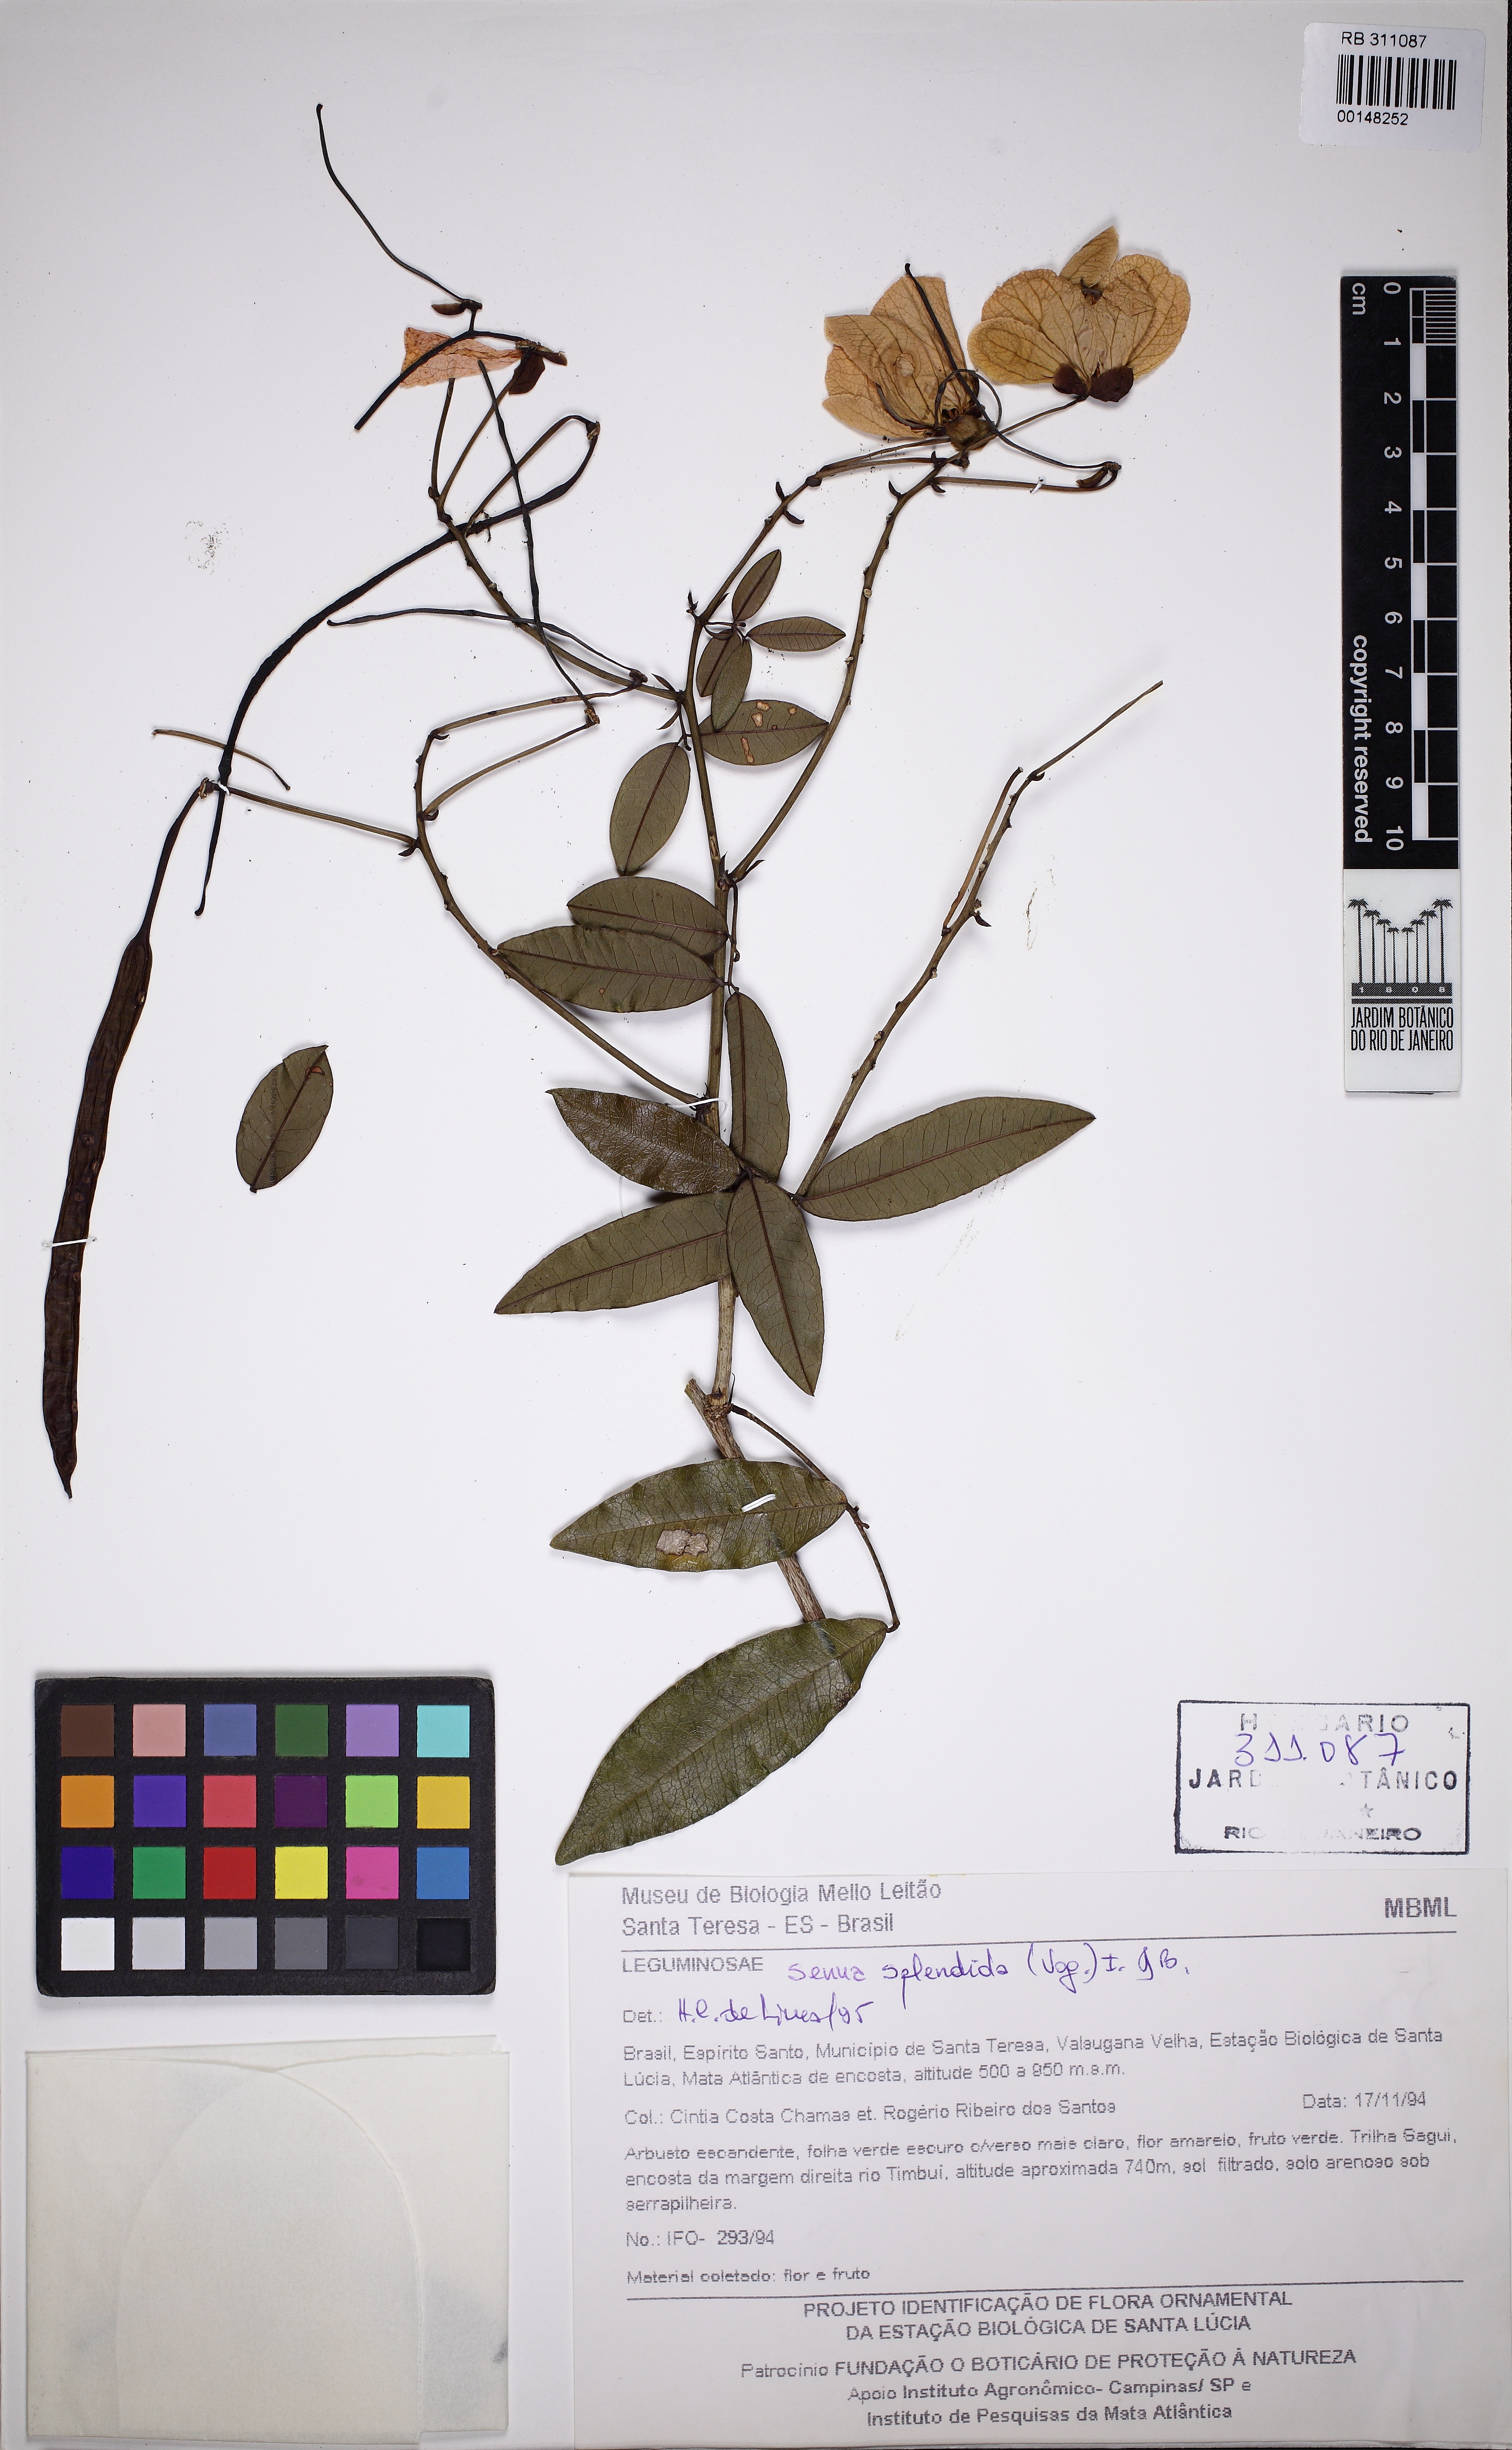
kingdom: Plantae
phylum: Tracheophyta
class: Magnoliopsida
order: Fabales
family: Fabaceae
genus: Senna
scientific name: Senna splendida
